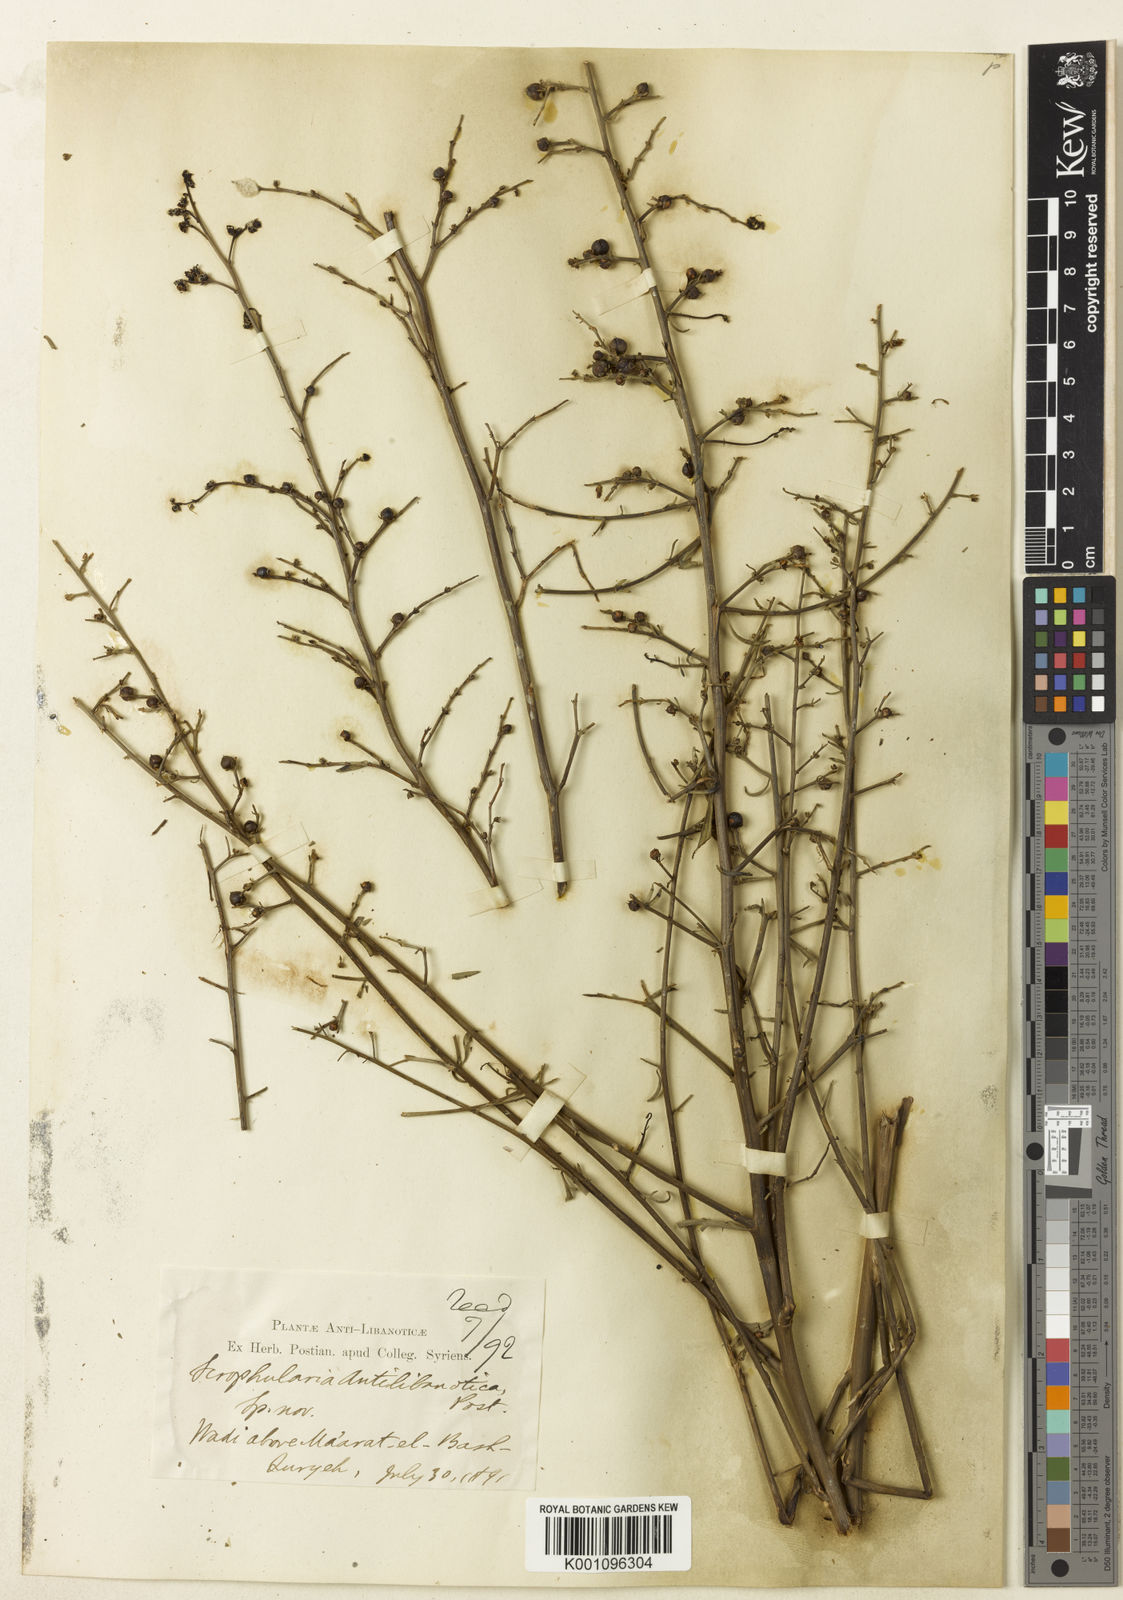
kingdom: Plantae
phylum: Tracheophyta
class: Magnoliopsida
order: Lamiales
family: Scrophulariaceae
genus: Scrophularia
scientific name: Scrophularia
